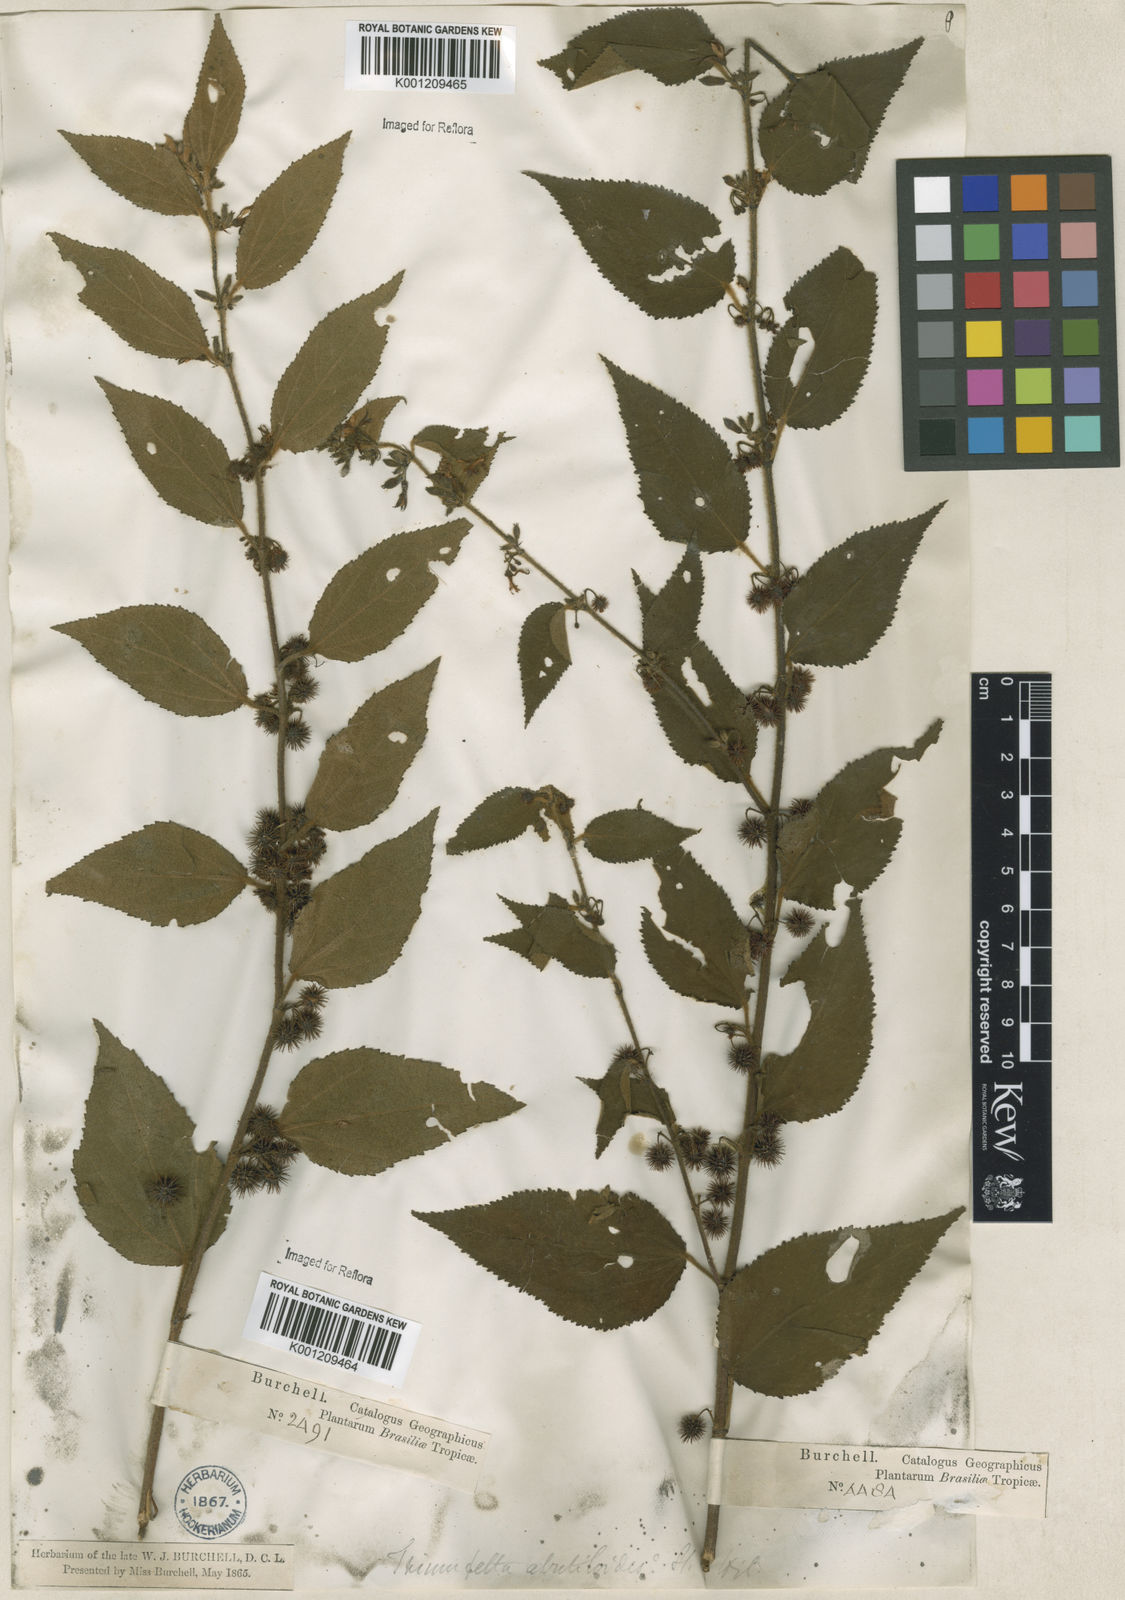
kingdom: Plantae
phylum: Tracheophyta
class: Magnoliopsida
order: Malvales
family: Malvaceae
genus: Triumfetta
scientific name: Triumfetta abutiloides
